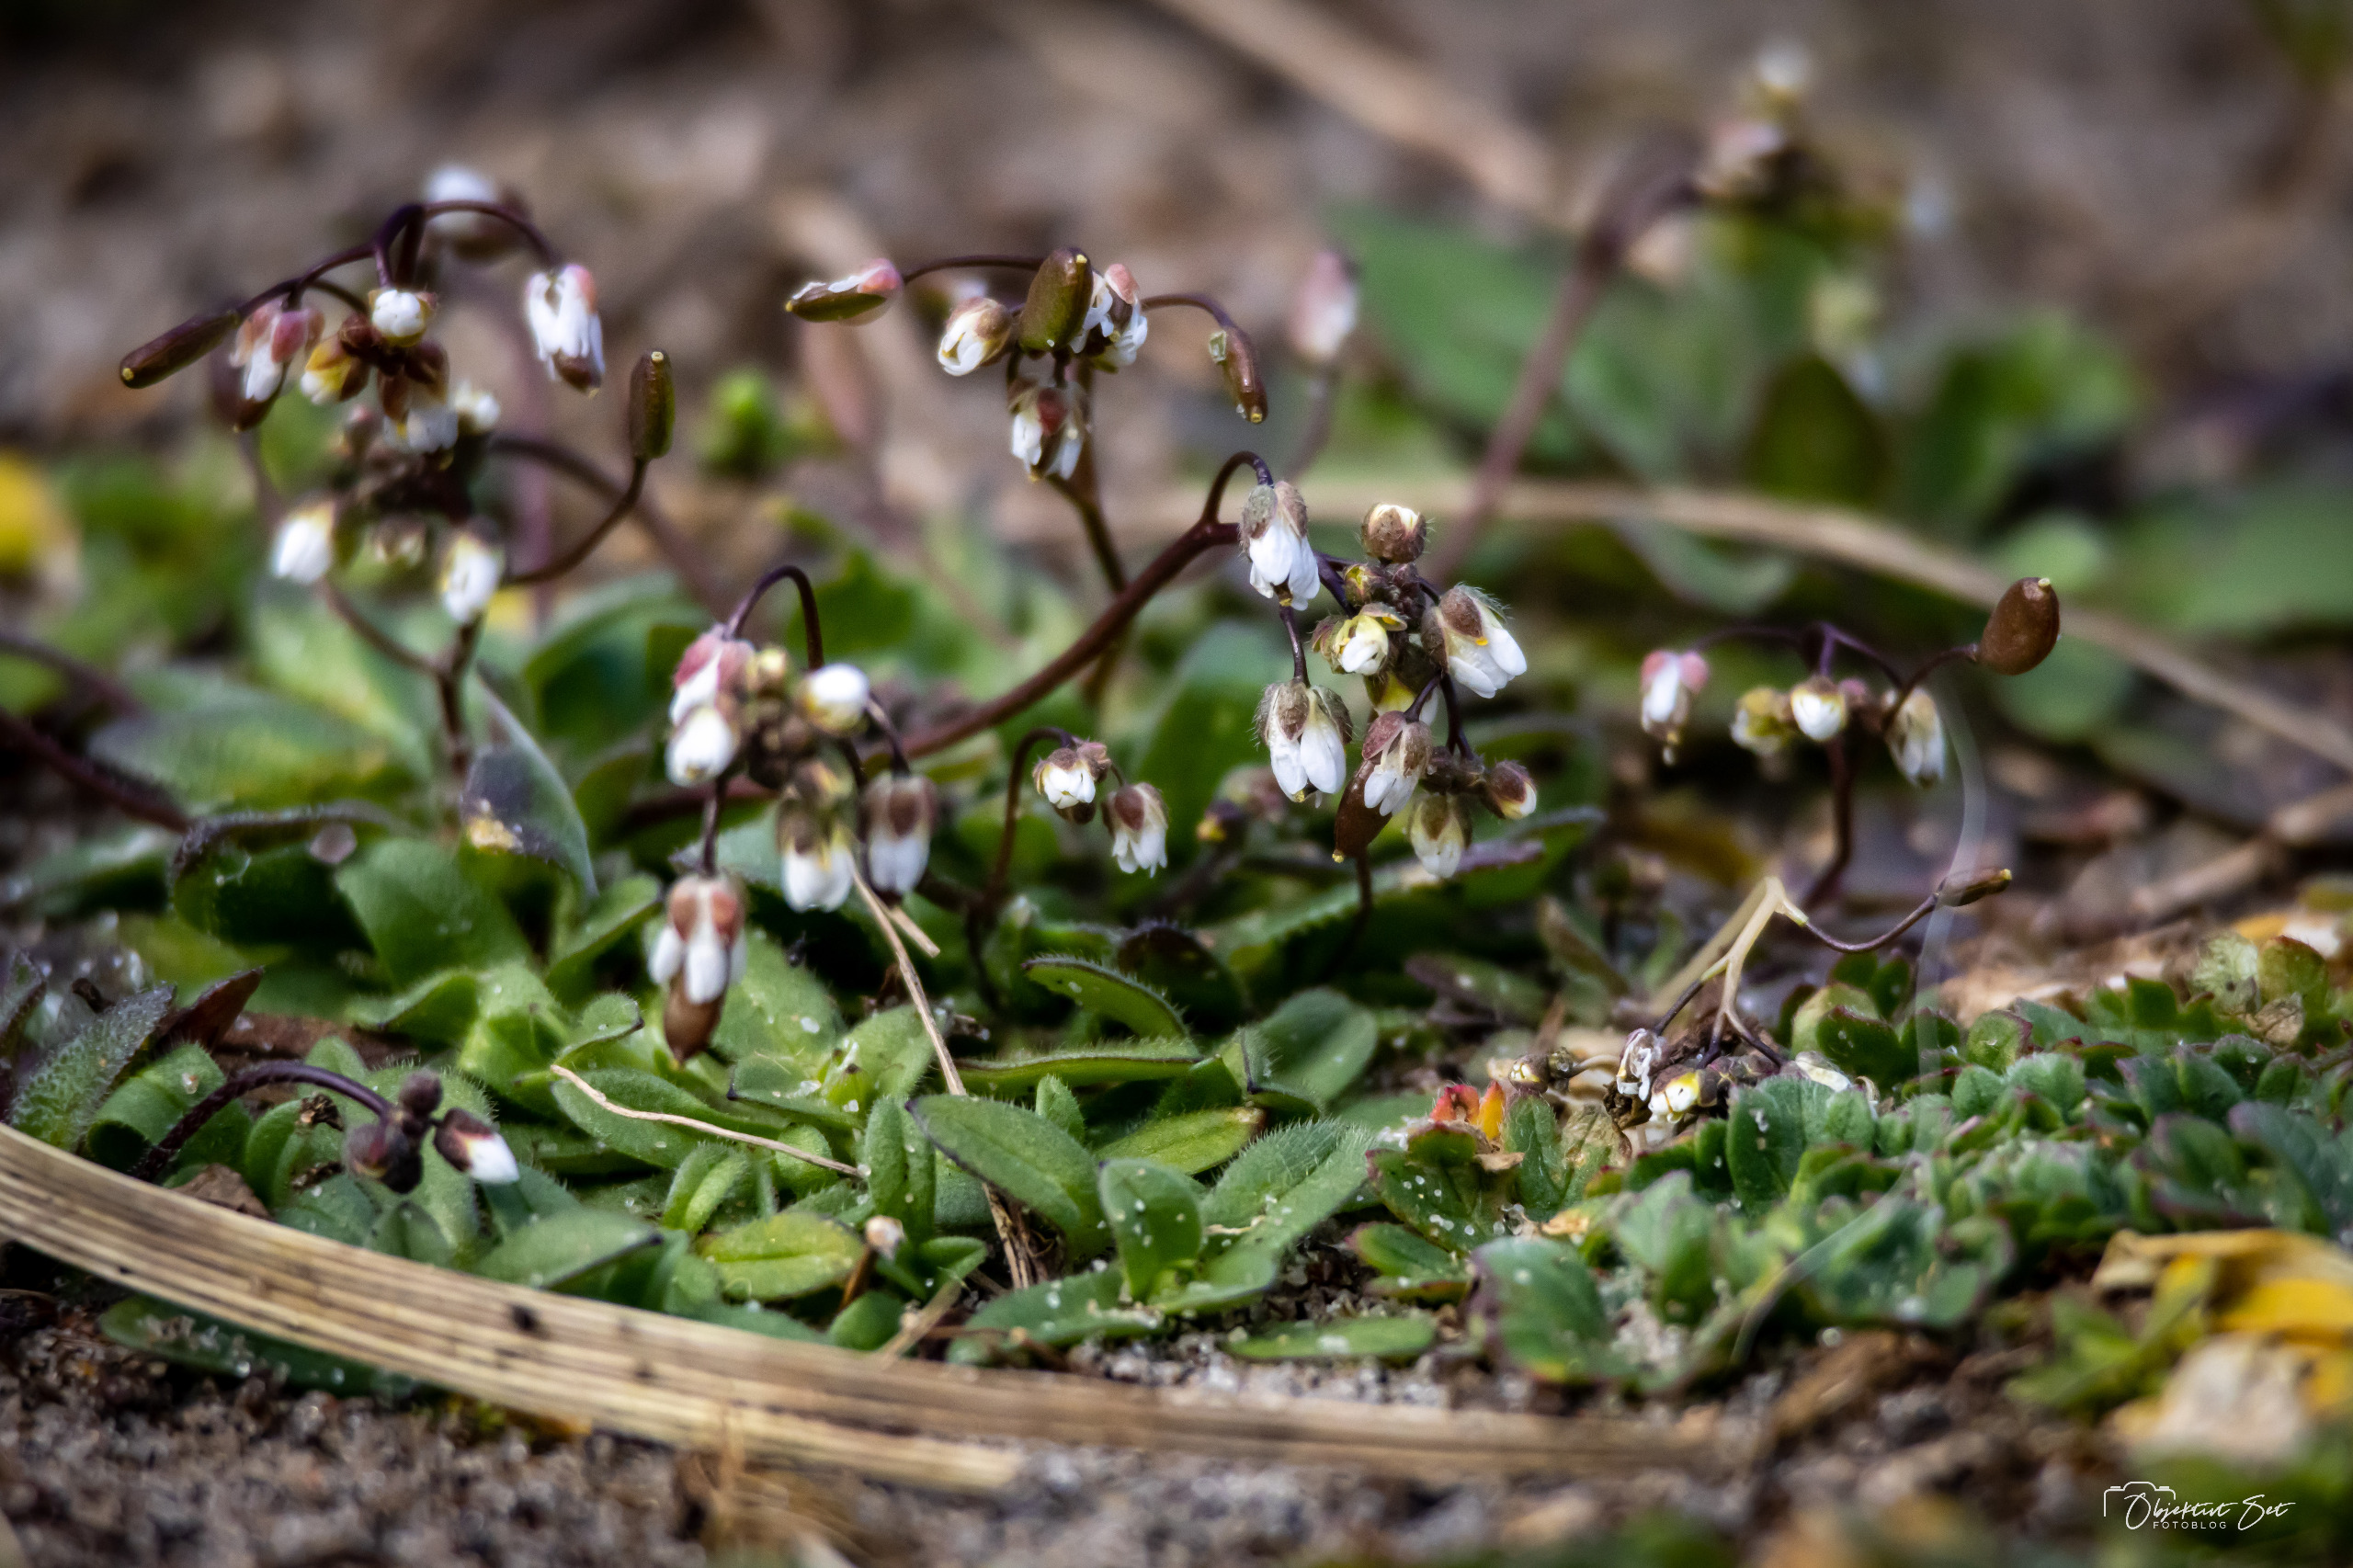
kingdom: Plantae
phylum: Tracheophyta
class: Magnoliopsida
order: Brassicales
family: Brassicaceae
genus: Draba
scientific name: Draba verna
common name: Vår-gæslingeblomst
